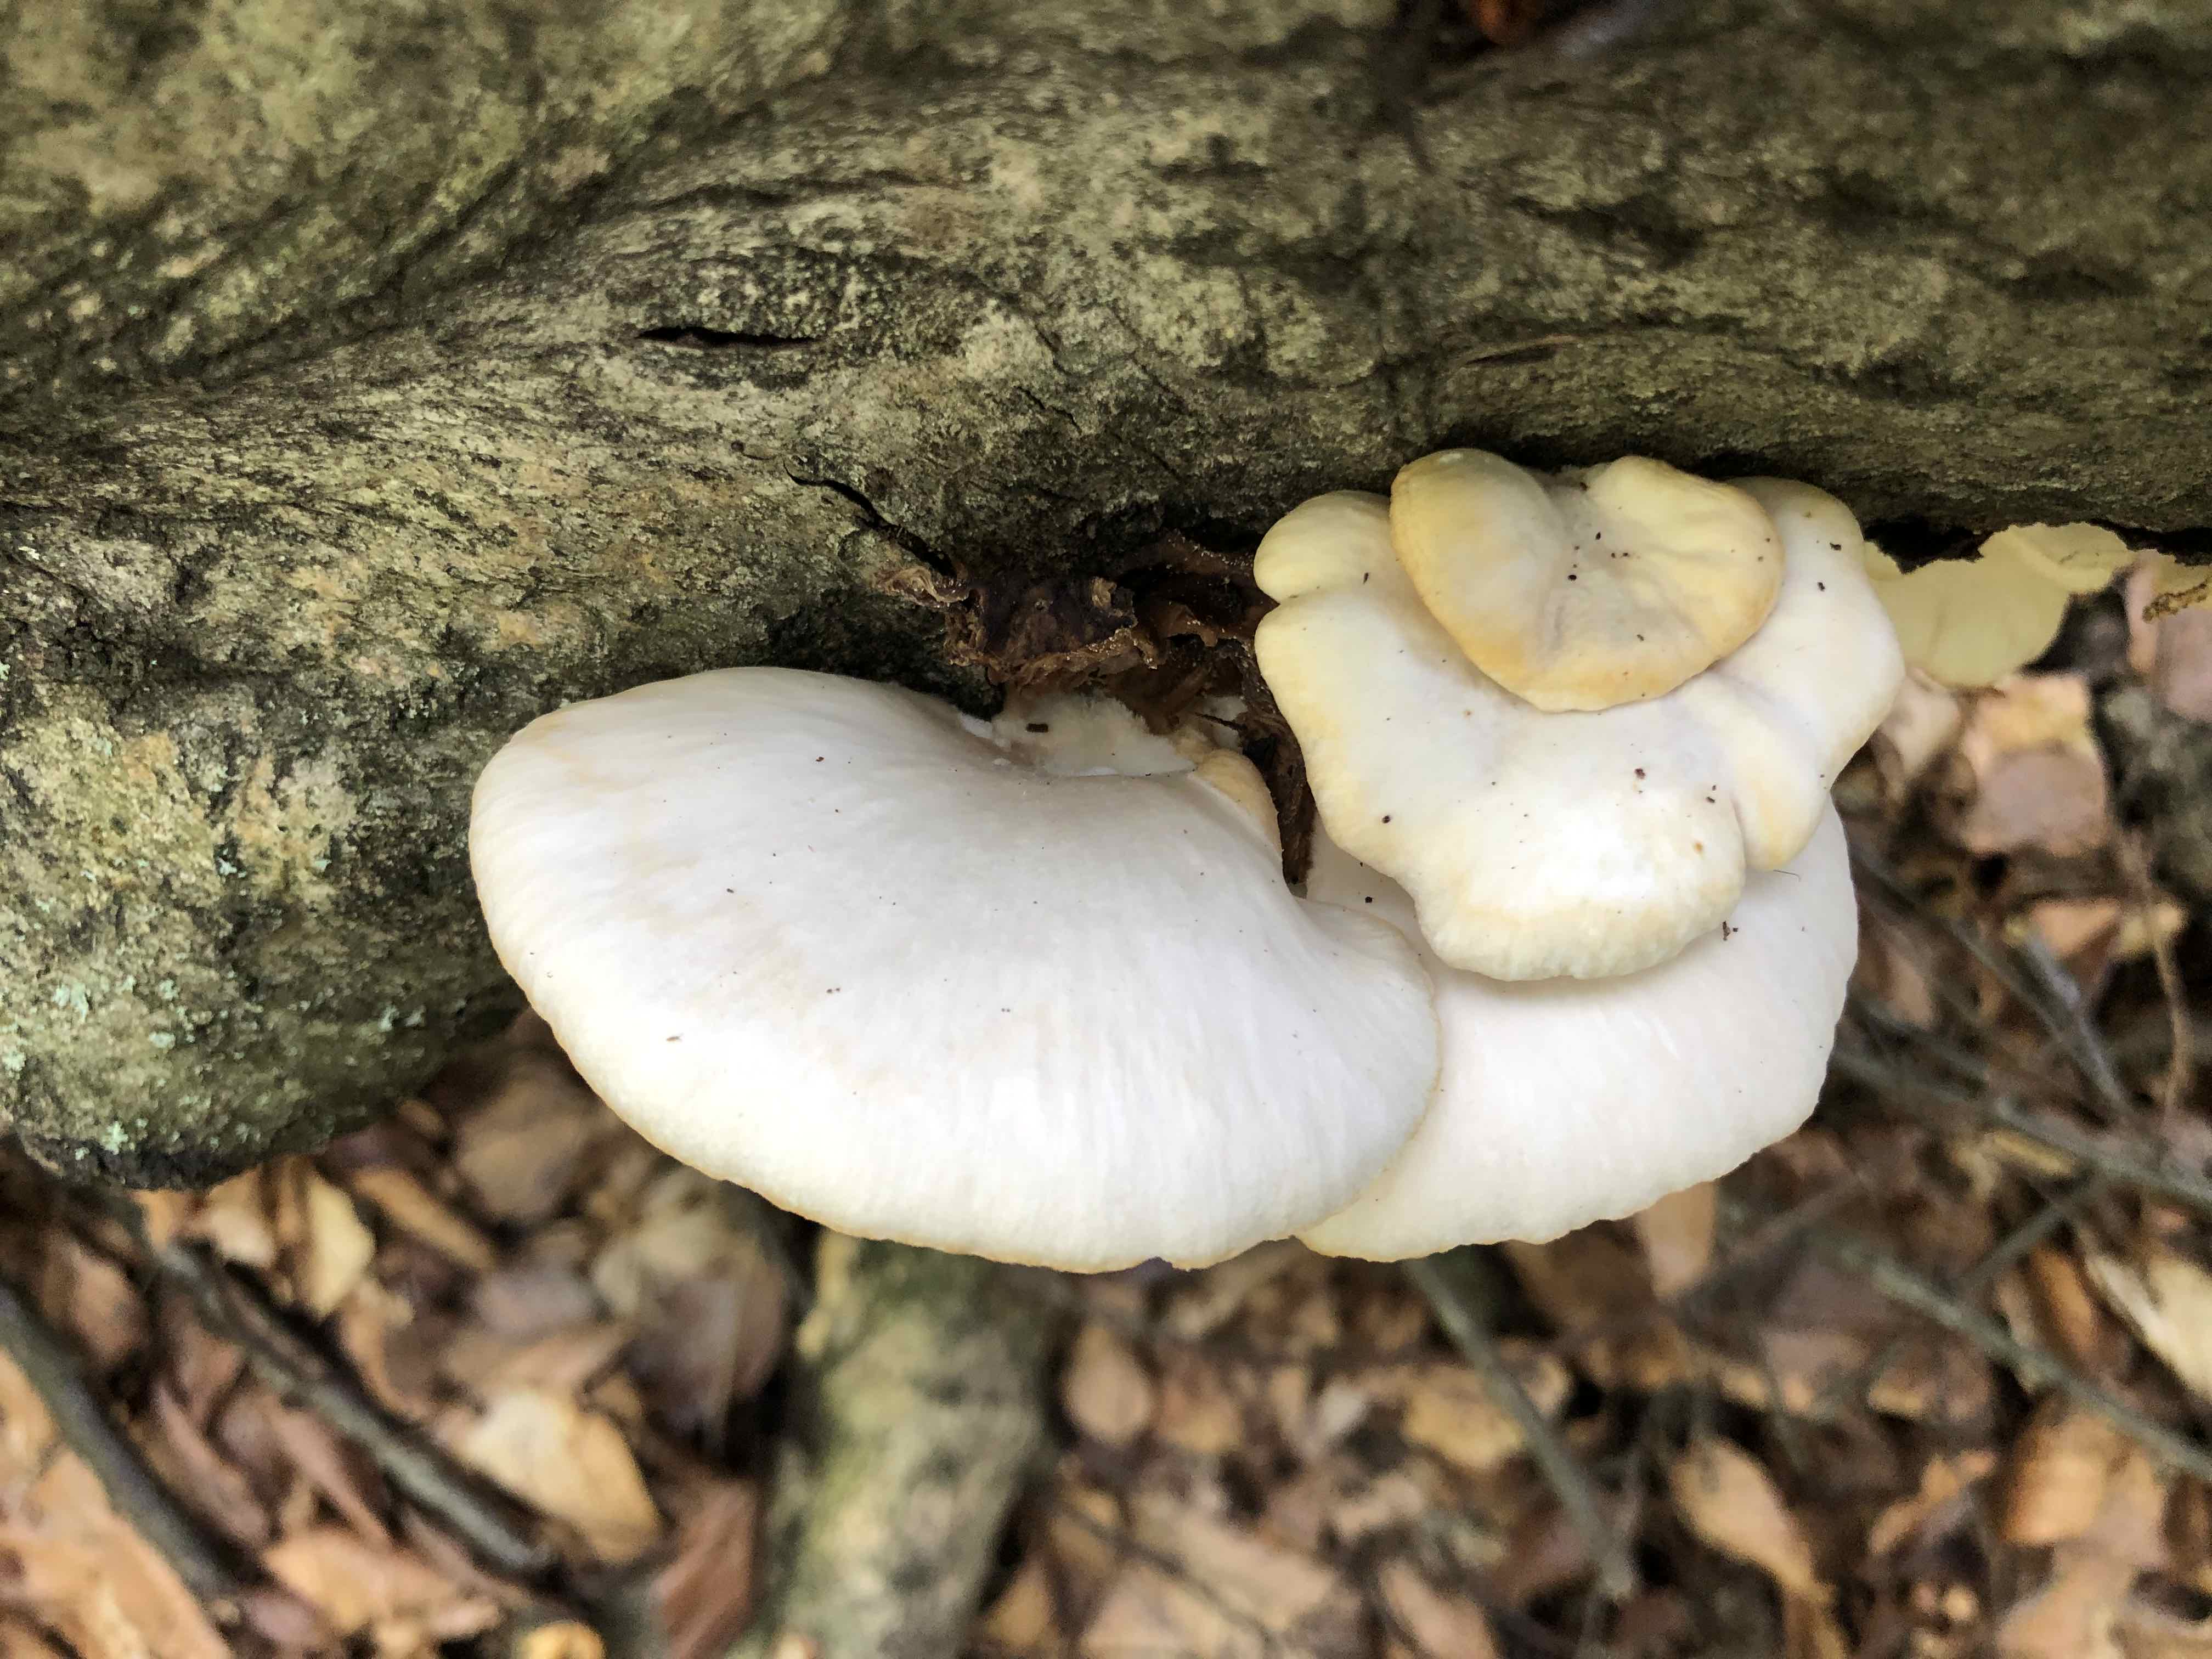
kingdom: Fungi
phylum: Basidiomycota
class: Agaricomycetes
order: Agaricales
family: Pleurotaceae
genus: Pleurotus
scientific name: Pleurotus pulmonarius
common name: sommer-østershat
